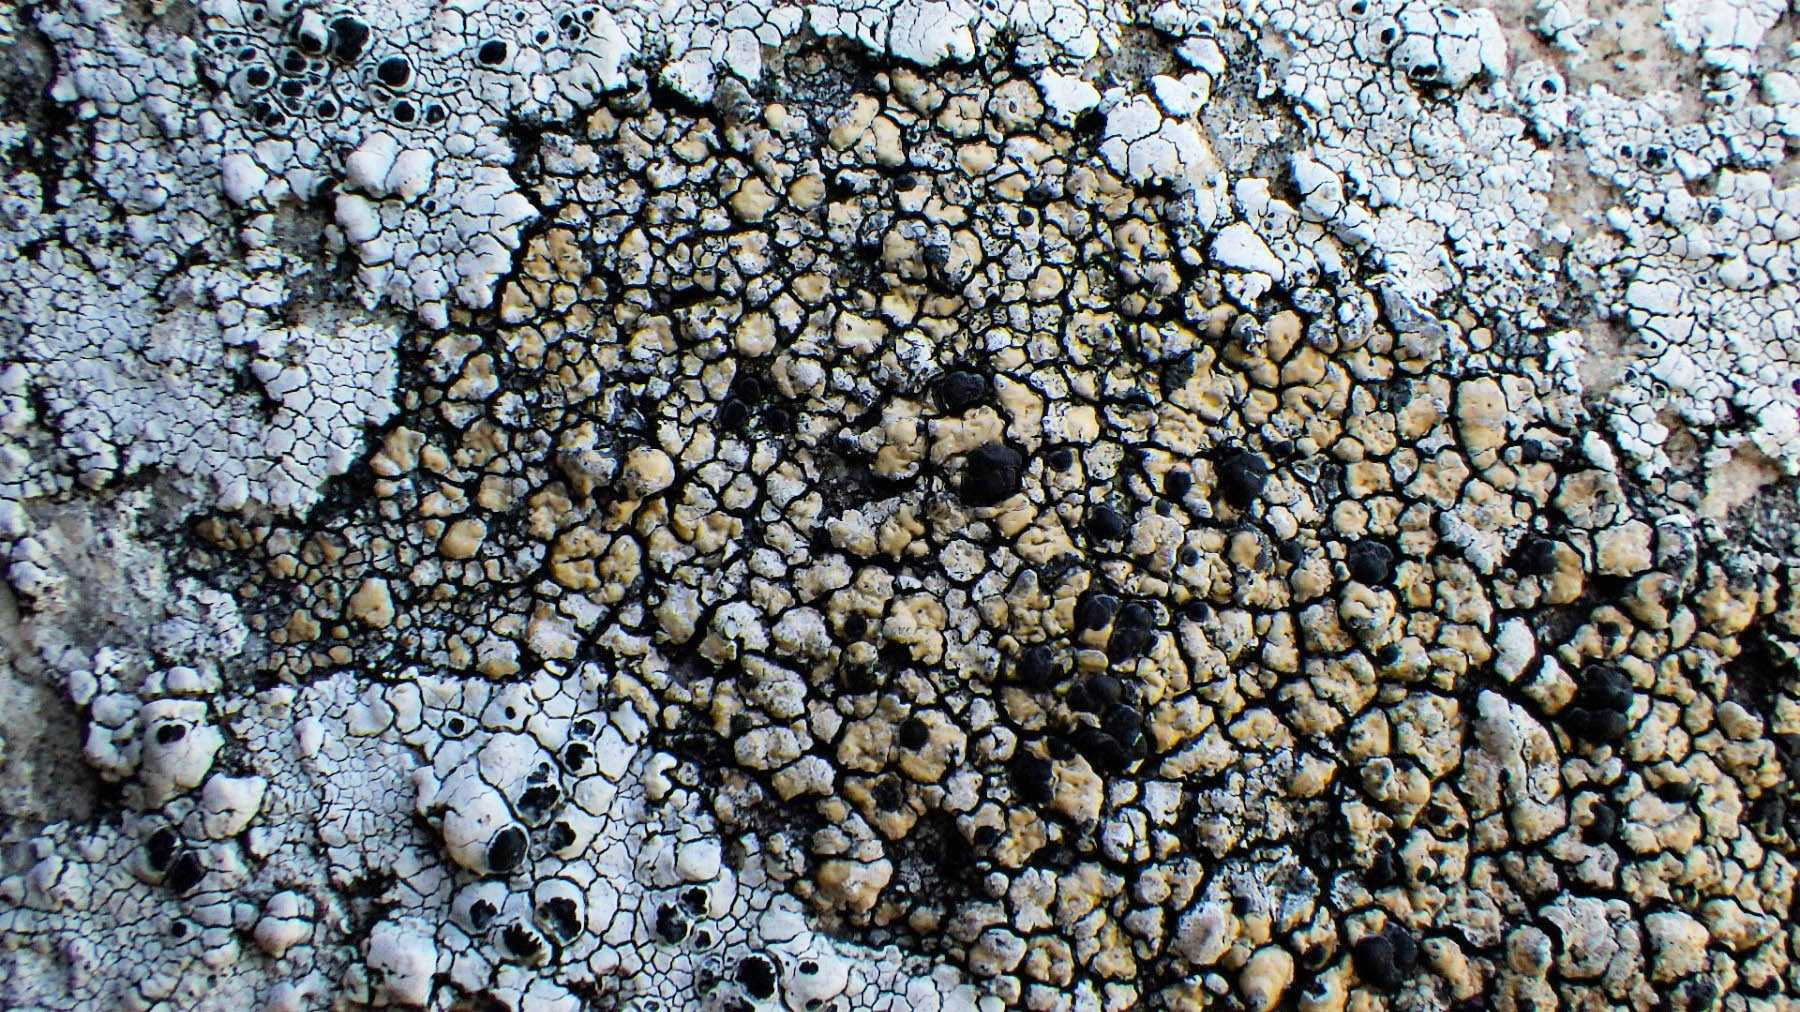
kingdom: Fungi
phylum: Ascomycota
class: Lecanoromycetes
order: Lecideales
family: Lecideaceae
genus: Lecidea
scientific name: Lecidea fuscoatra
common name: rudret skivelav
